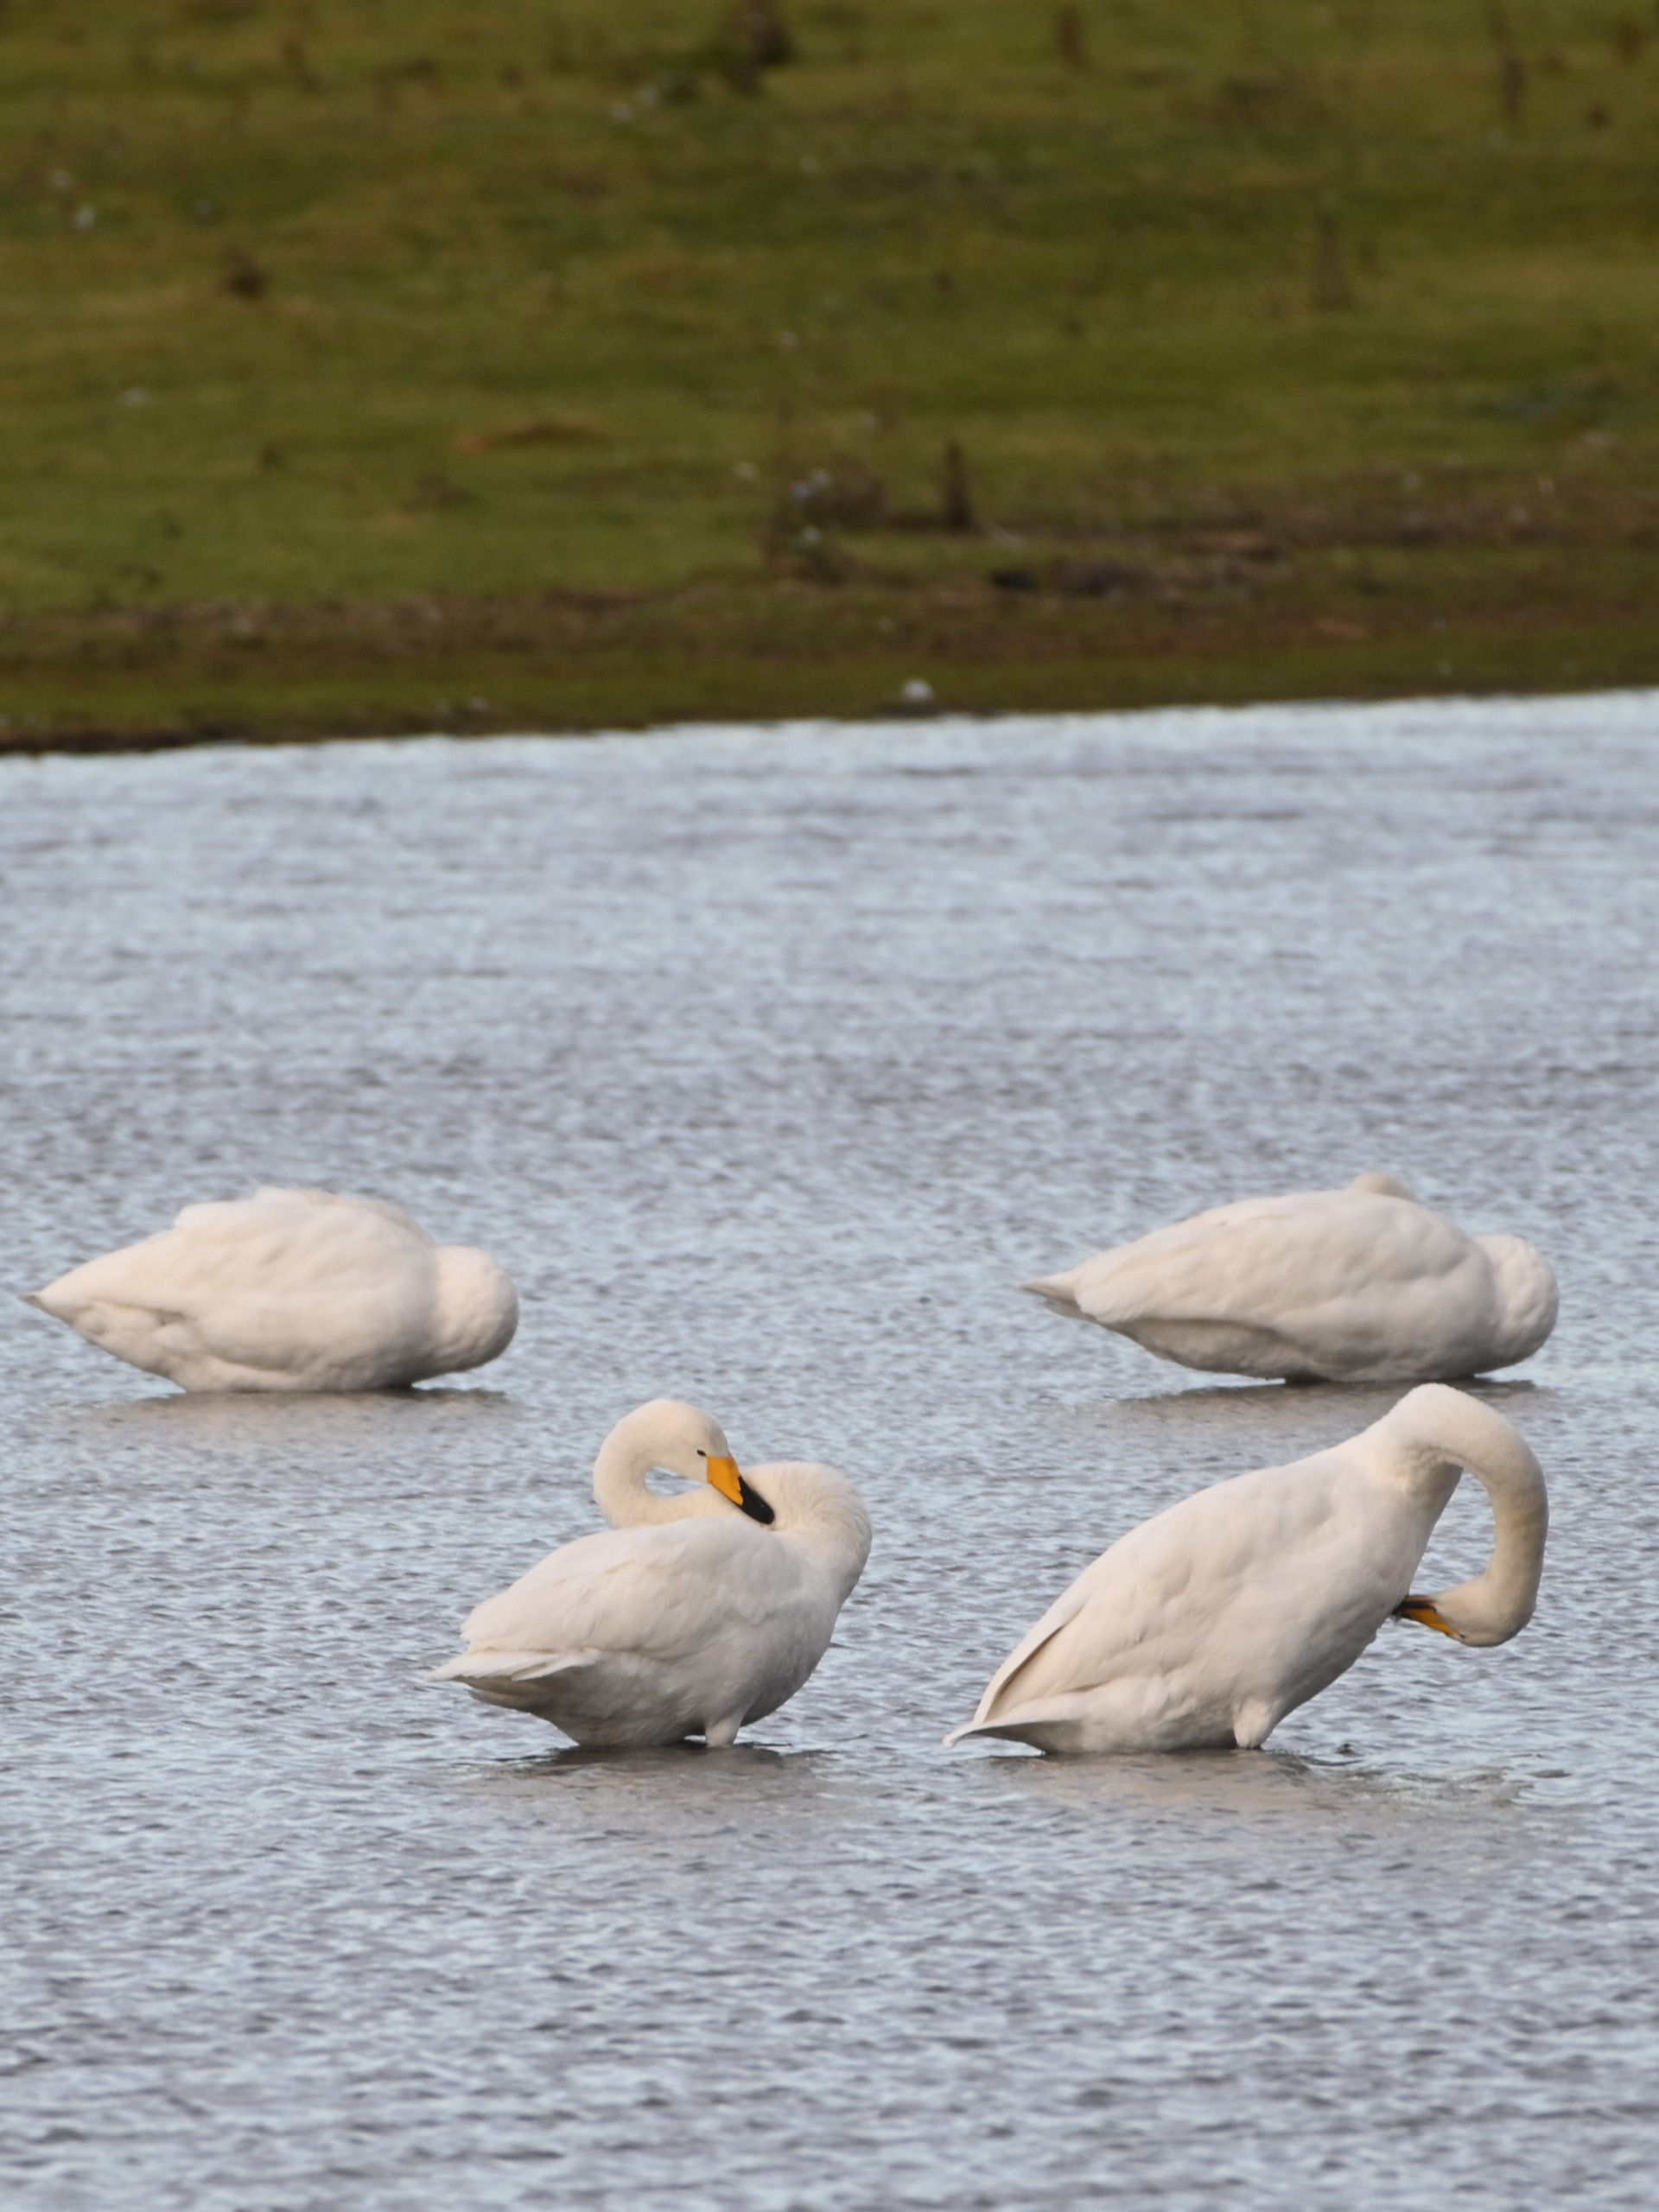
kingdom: Animalia
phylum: Chordata
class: Aves
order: Anseriformes
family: Anatidae
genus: Cygnus
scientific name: Cygnus cygnus
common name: Sangsvane
